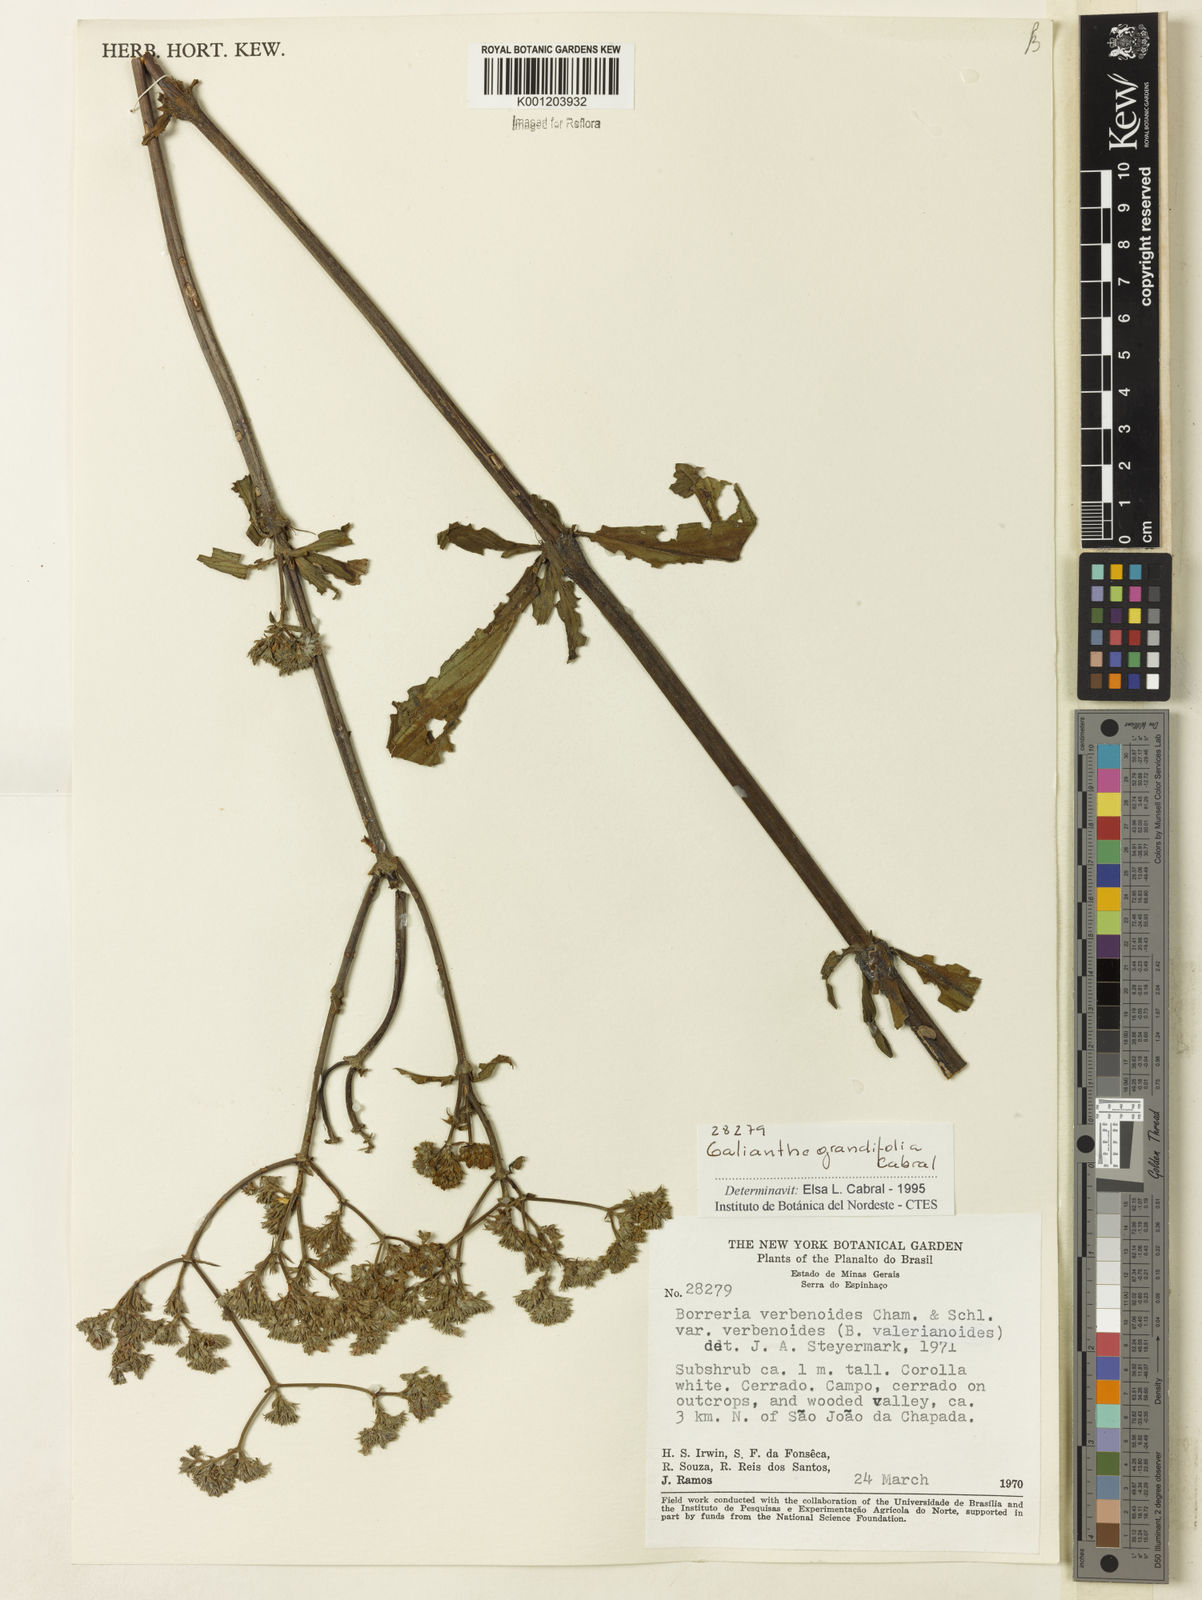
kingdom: Plantae
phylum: Tracheophyta
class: Magnoliopsida
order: Gentianales
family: Rubiaceae
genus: Galianthe
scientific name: Galianthe grandifolia
